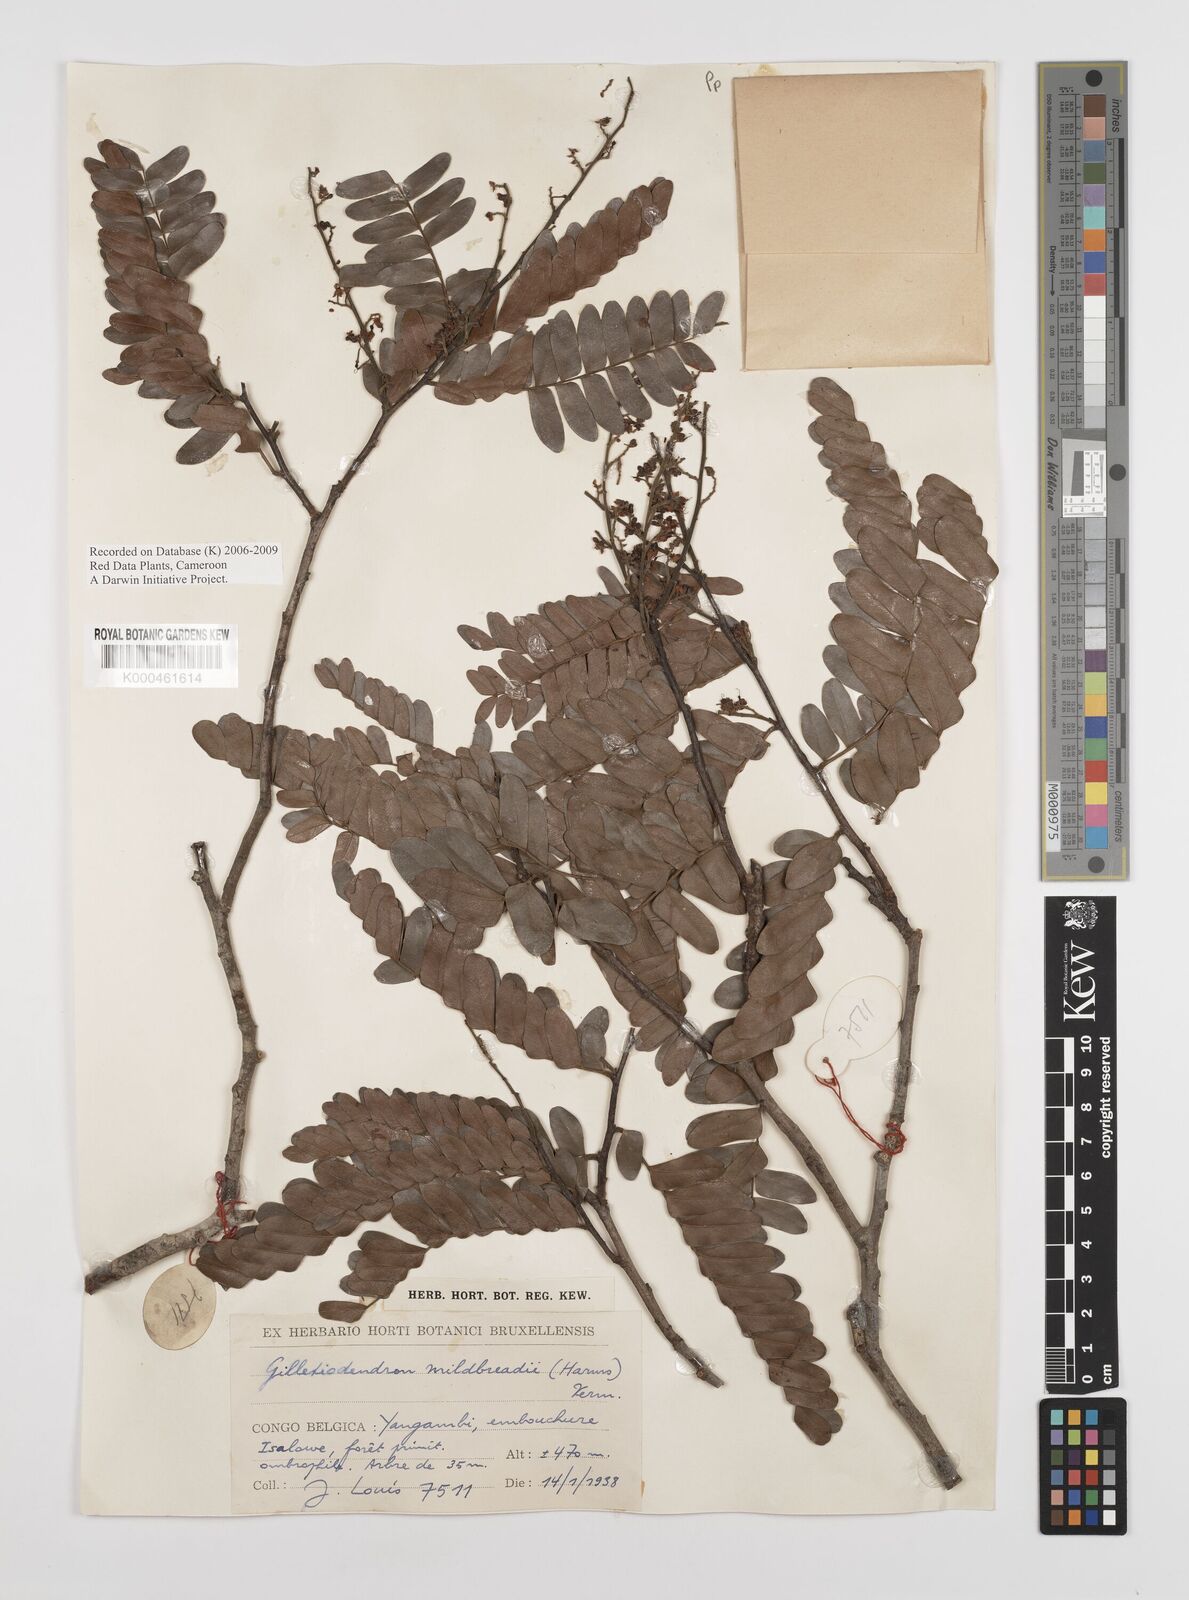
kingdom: Plantae
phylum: Tracheophyta
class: Magnoliopsida
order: Fabales
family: Fabaceae
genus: Gilletiodendron
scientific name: Gilletiodendron mildbraedii
